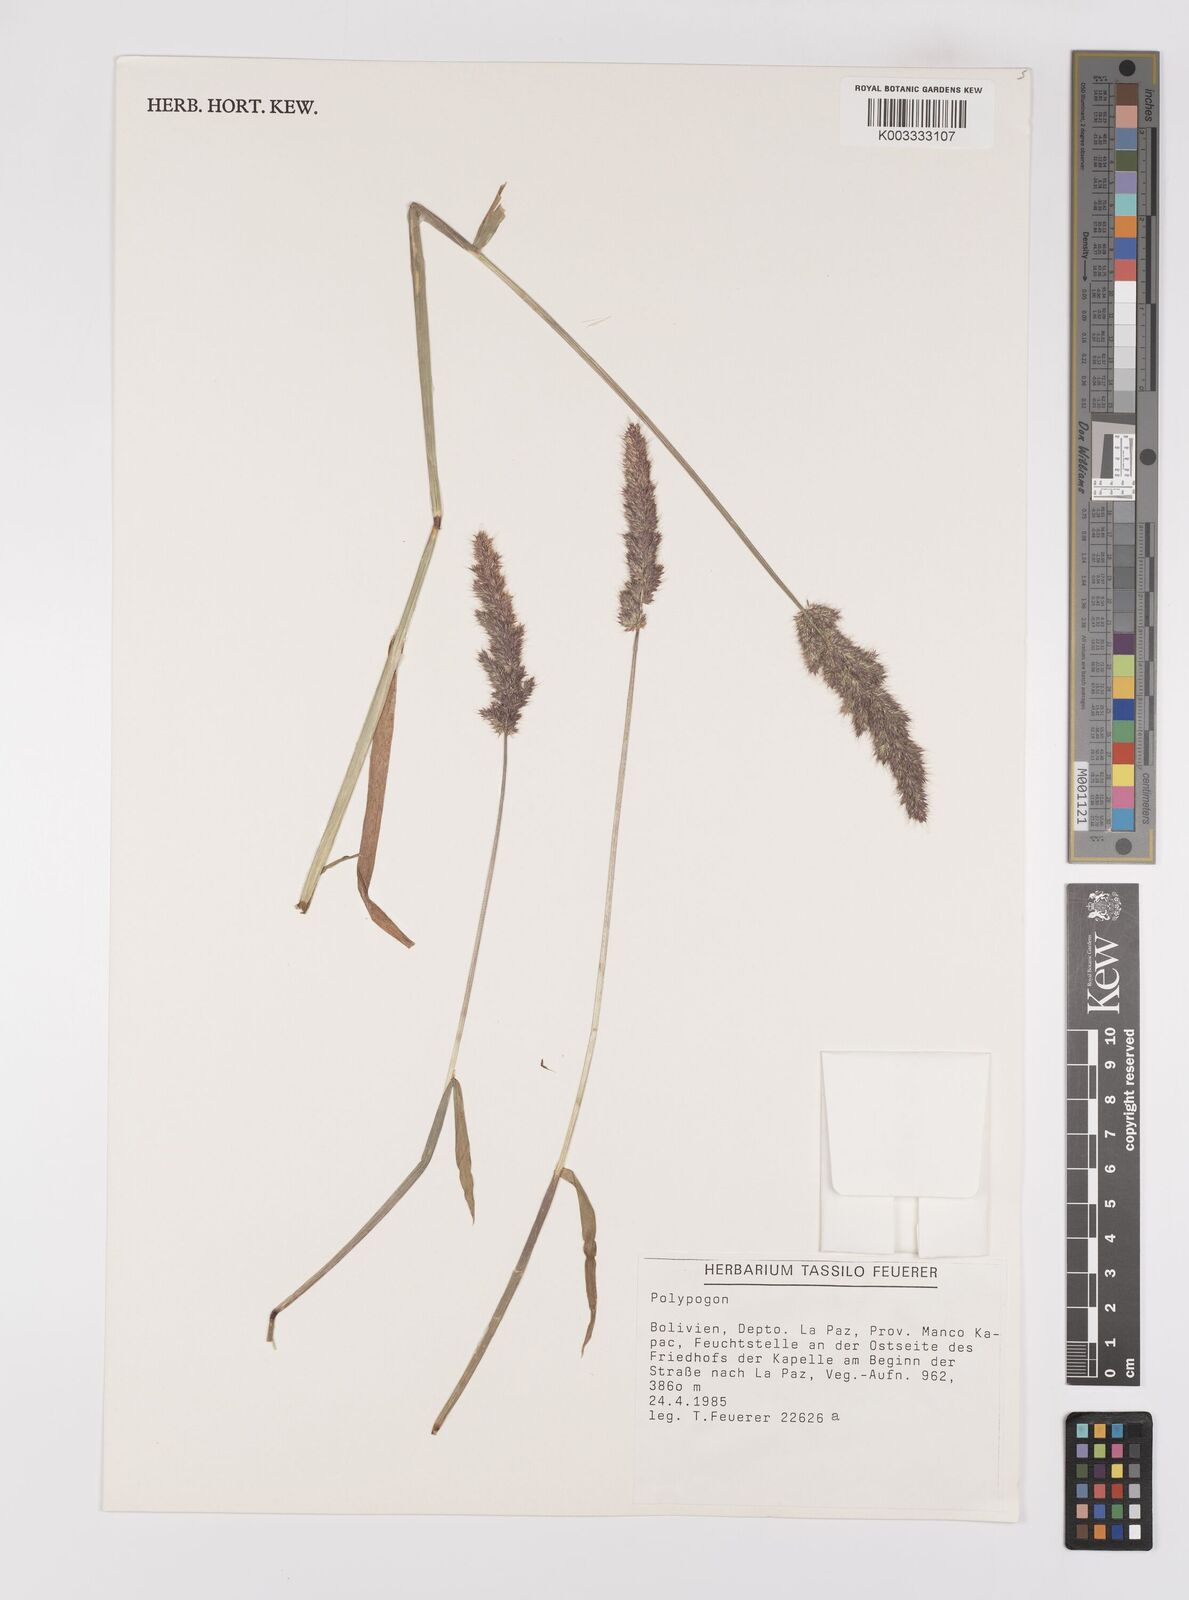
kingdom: Plantae
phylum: Tracheophyta
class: Liliopsida
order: Poales
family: Poaceae
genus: Polypogon
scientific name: Polypogon interruptus
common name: Ditch polypogon
